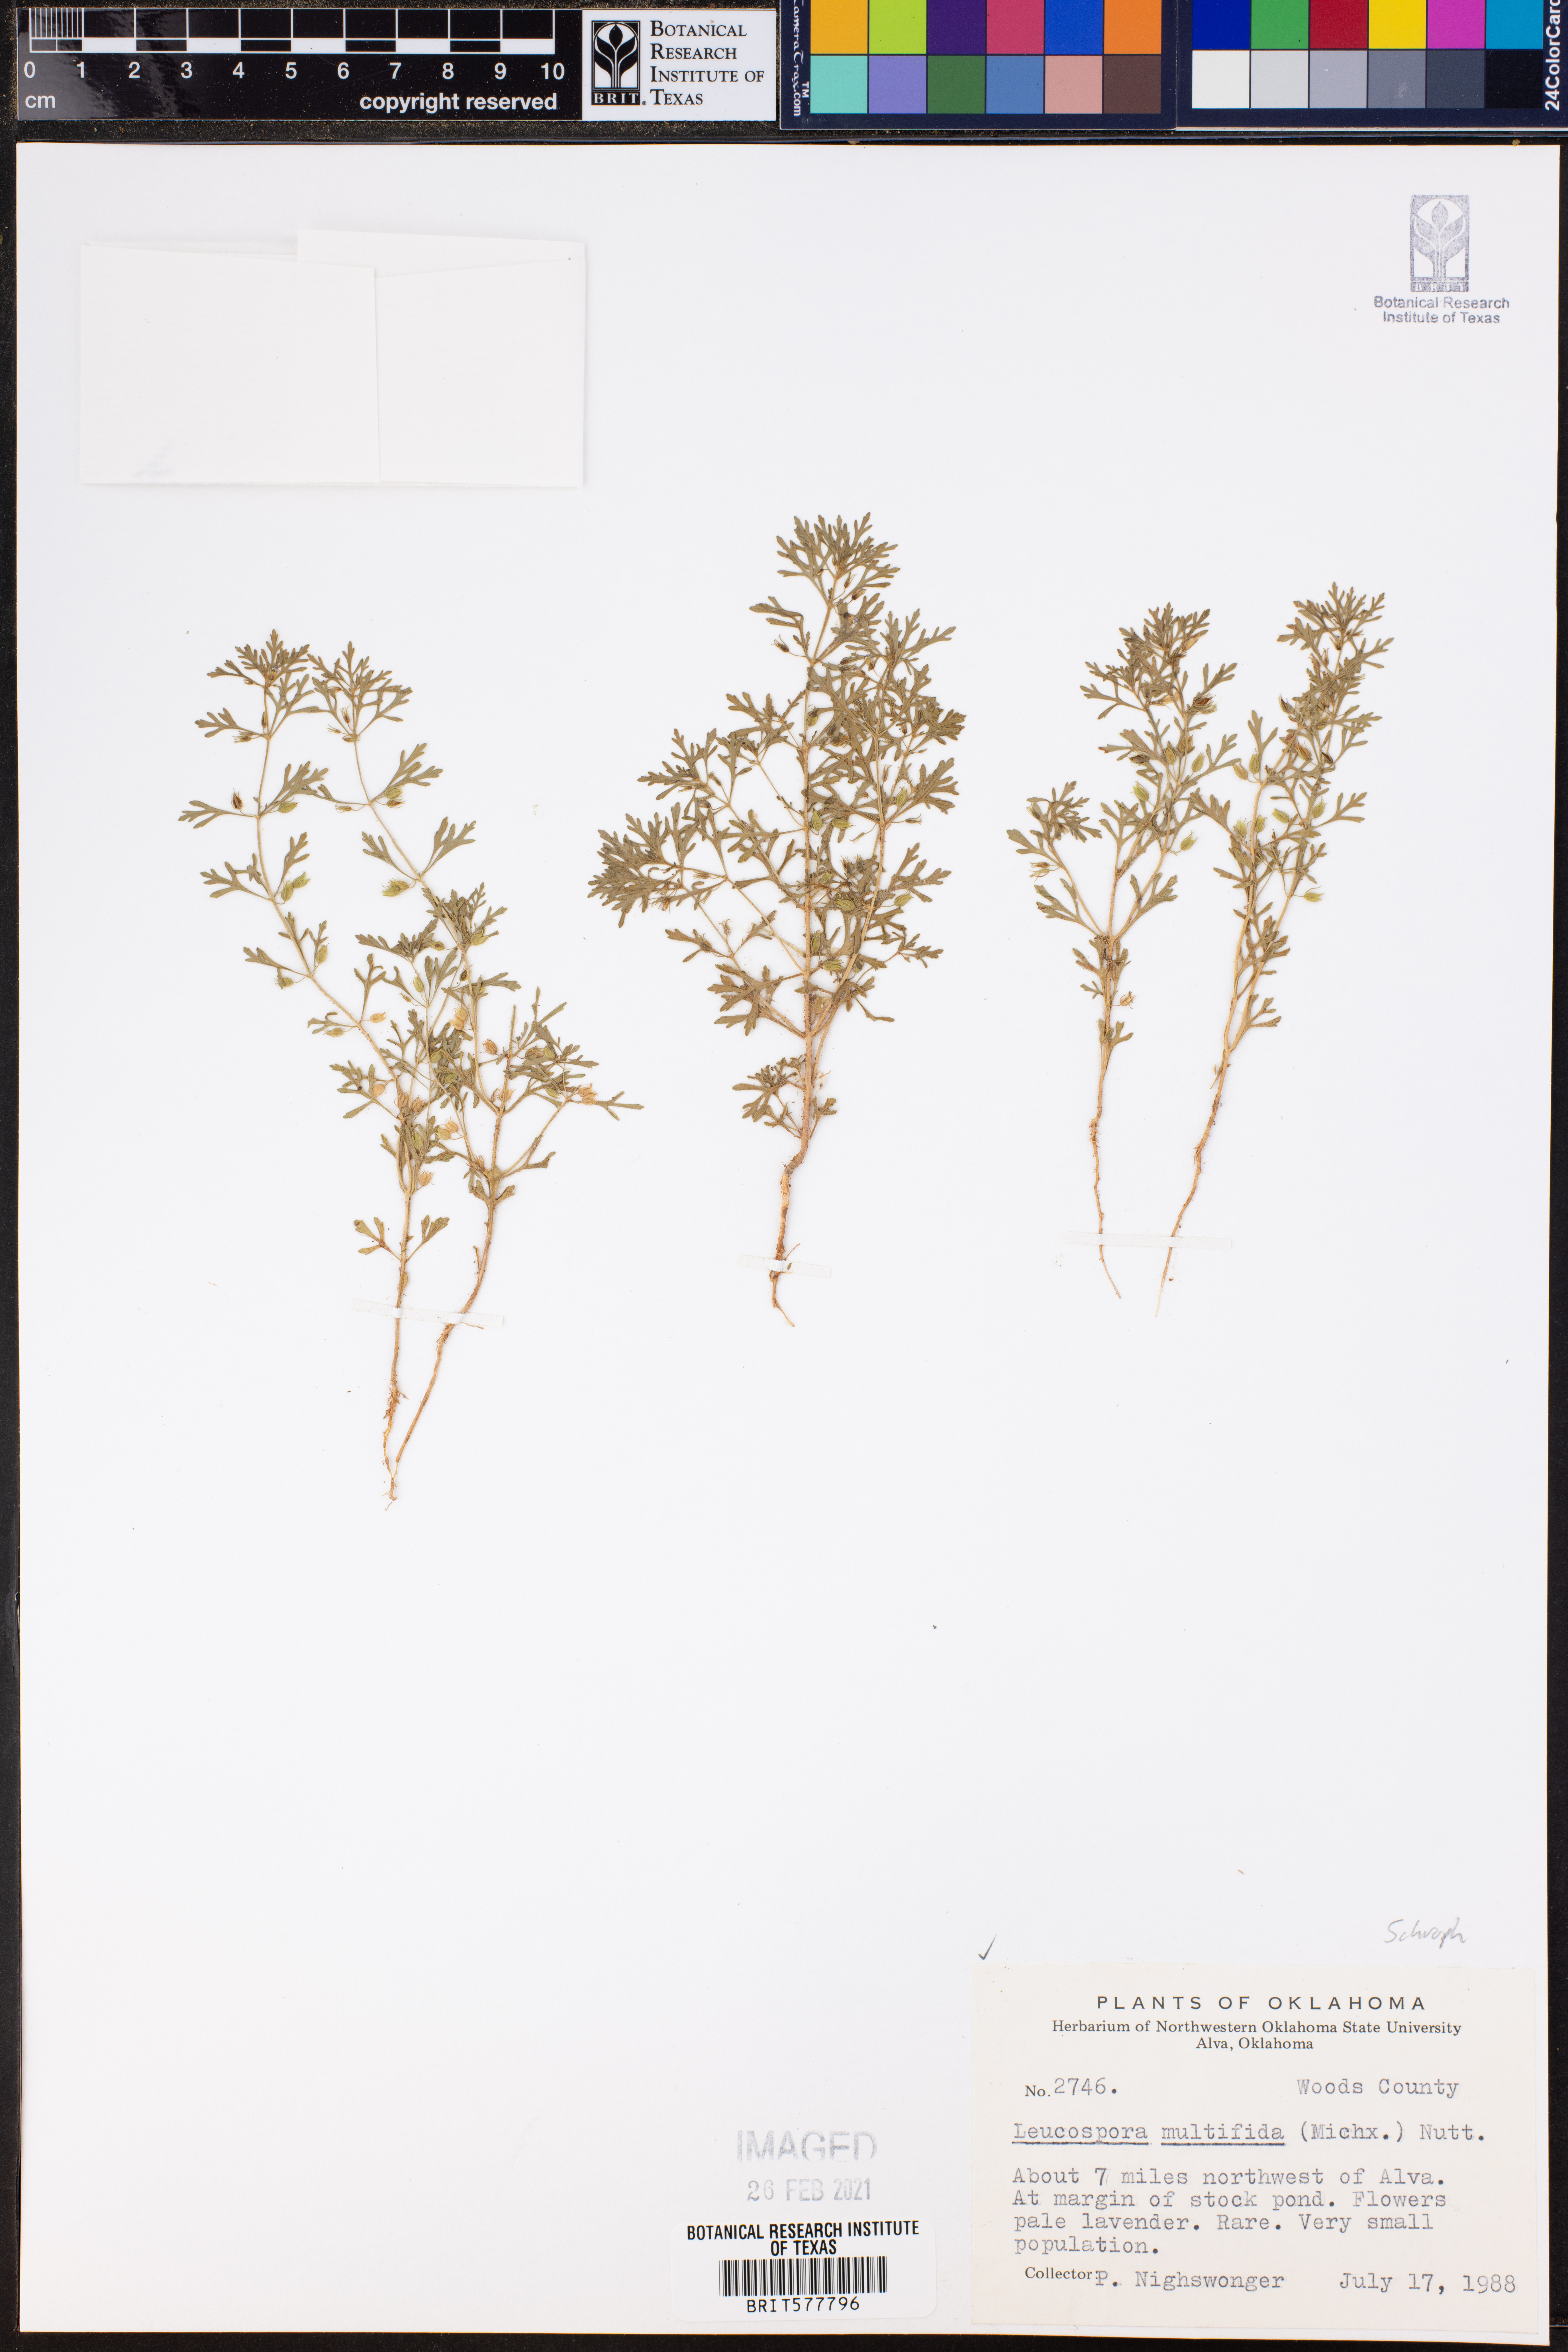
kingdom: Plantae
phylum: Tracheophyta
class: Magnoliopsida
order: Lamiales
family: Plantaginaceae
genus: Leucospora
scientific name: Leucospora multifida
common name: Narrow-leaf paleseed
